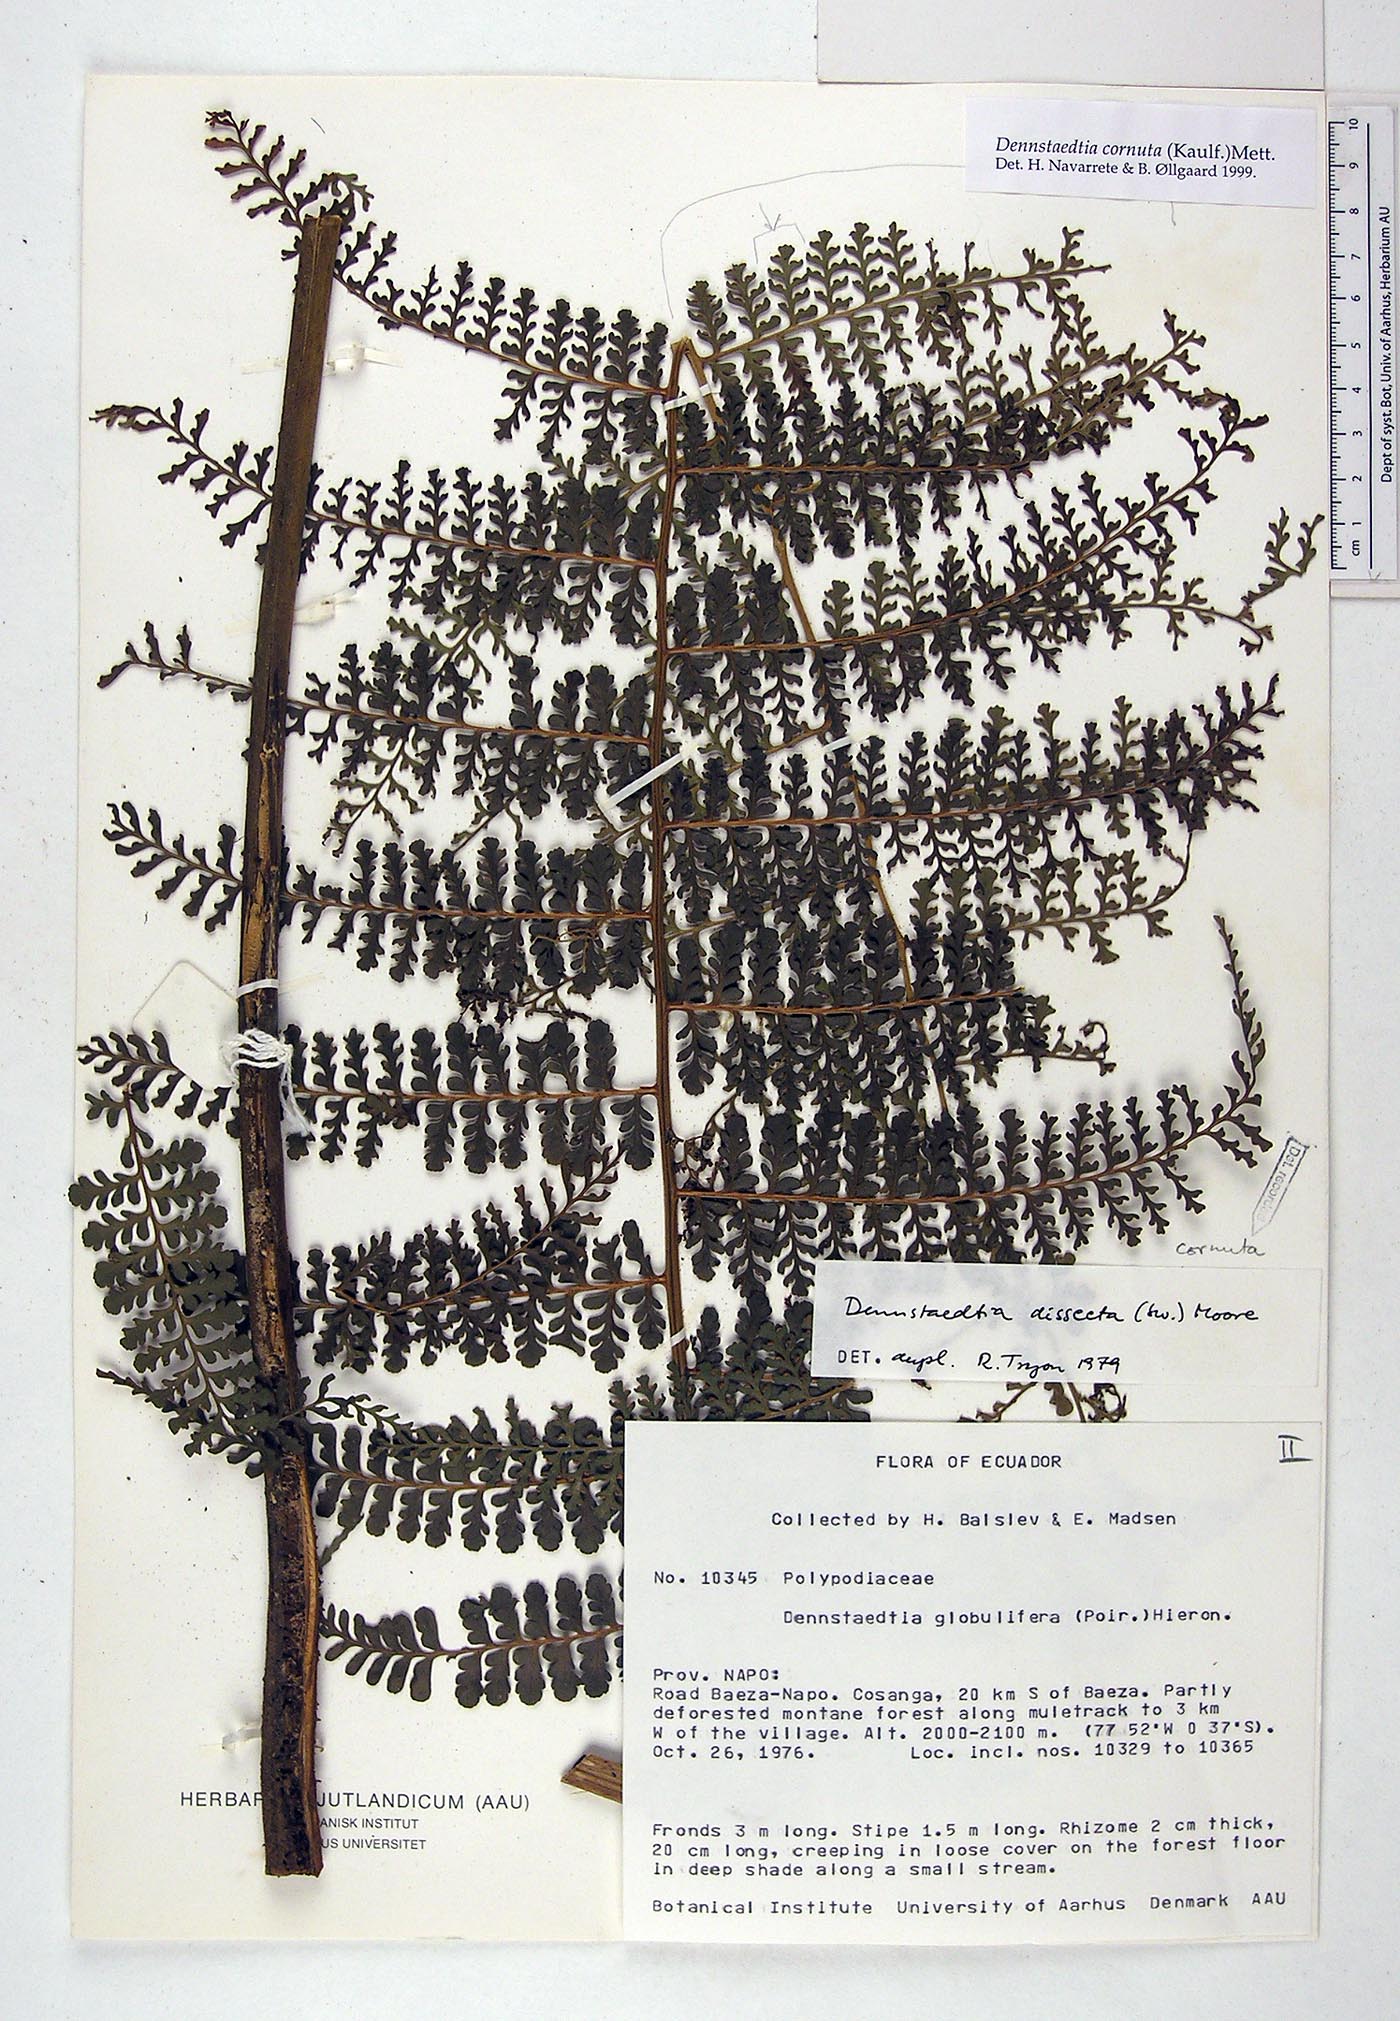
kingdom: Plantae
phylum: Tracheophyta
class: Polypodiopsida
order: Polypodiales
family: Dennstaedtiaceae
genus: Dennstaedtia
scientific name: Dennstaedtia cornuta
